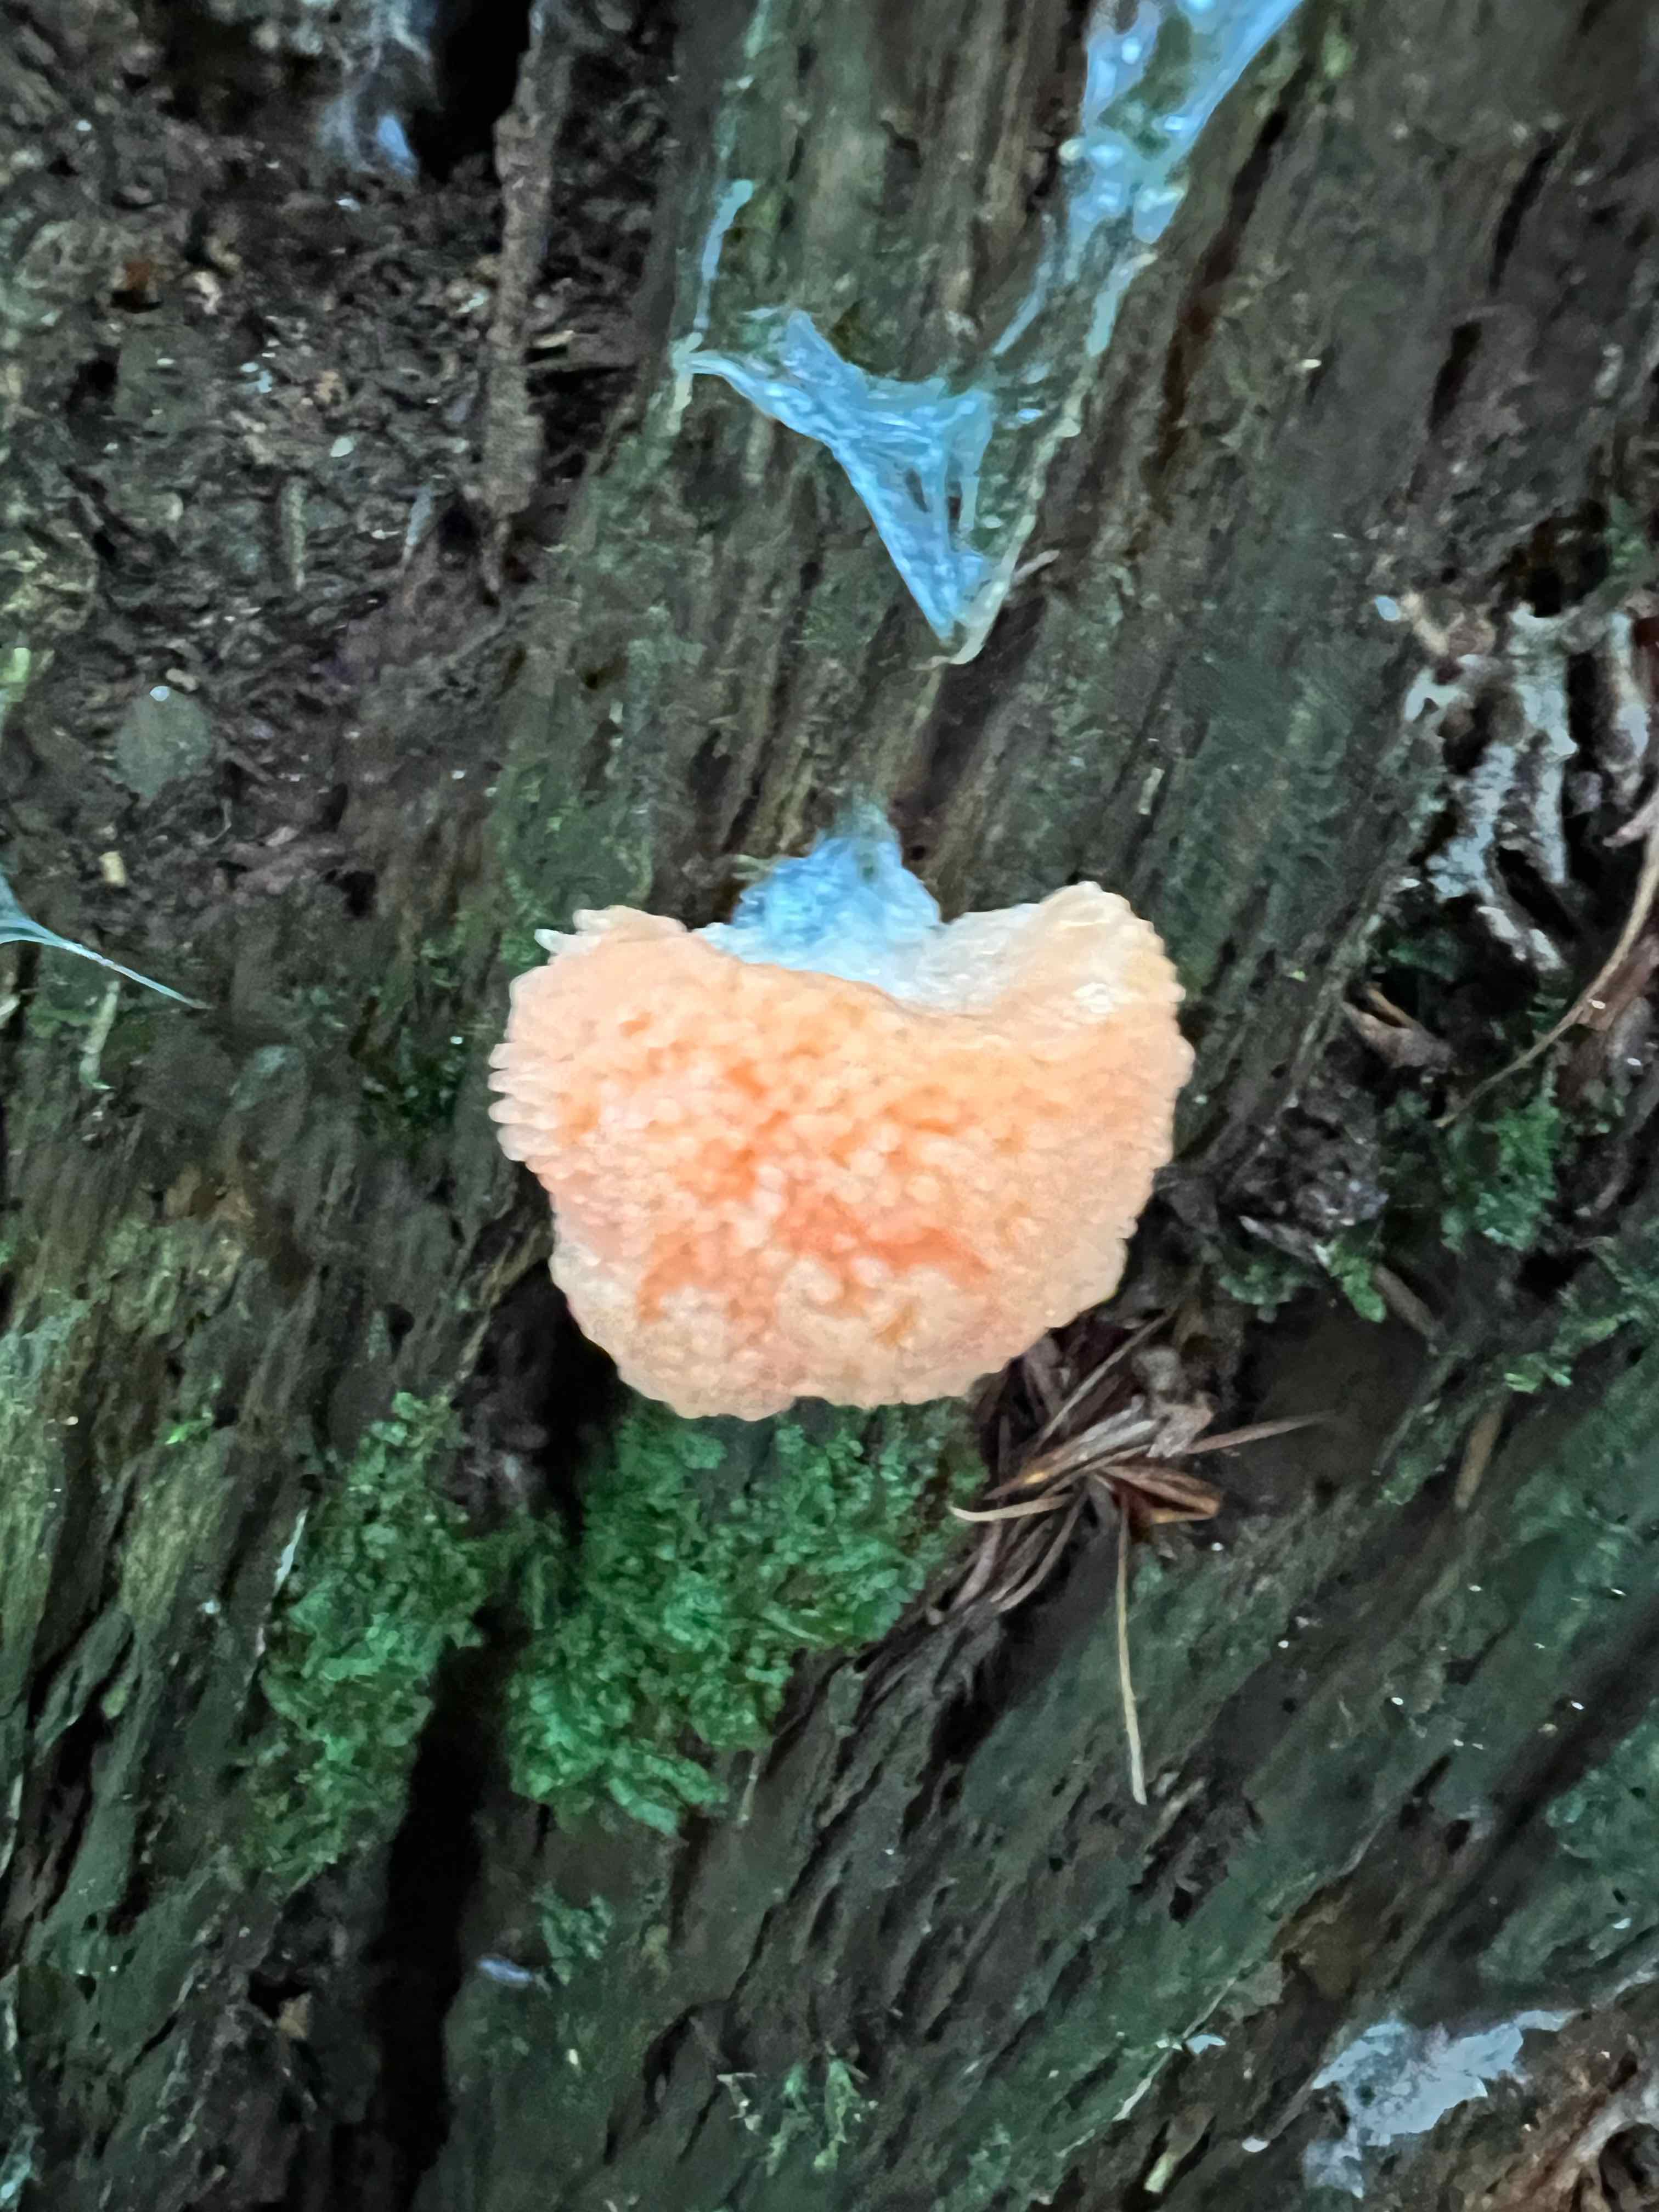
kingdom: Protozoa
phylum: Mycetozoa
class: Myxomycetes
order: Cribrariales
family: Tubiferaceae
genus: Tubifera
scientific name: Tubifera
